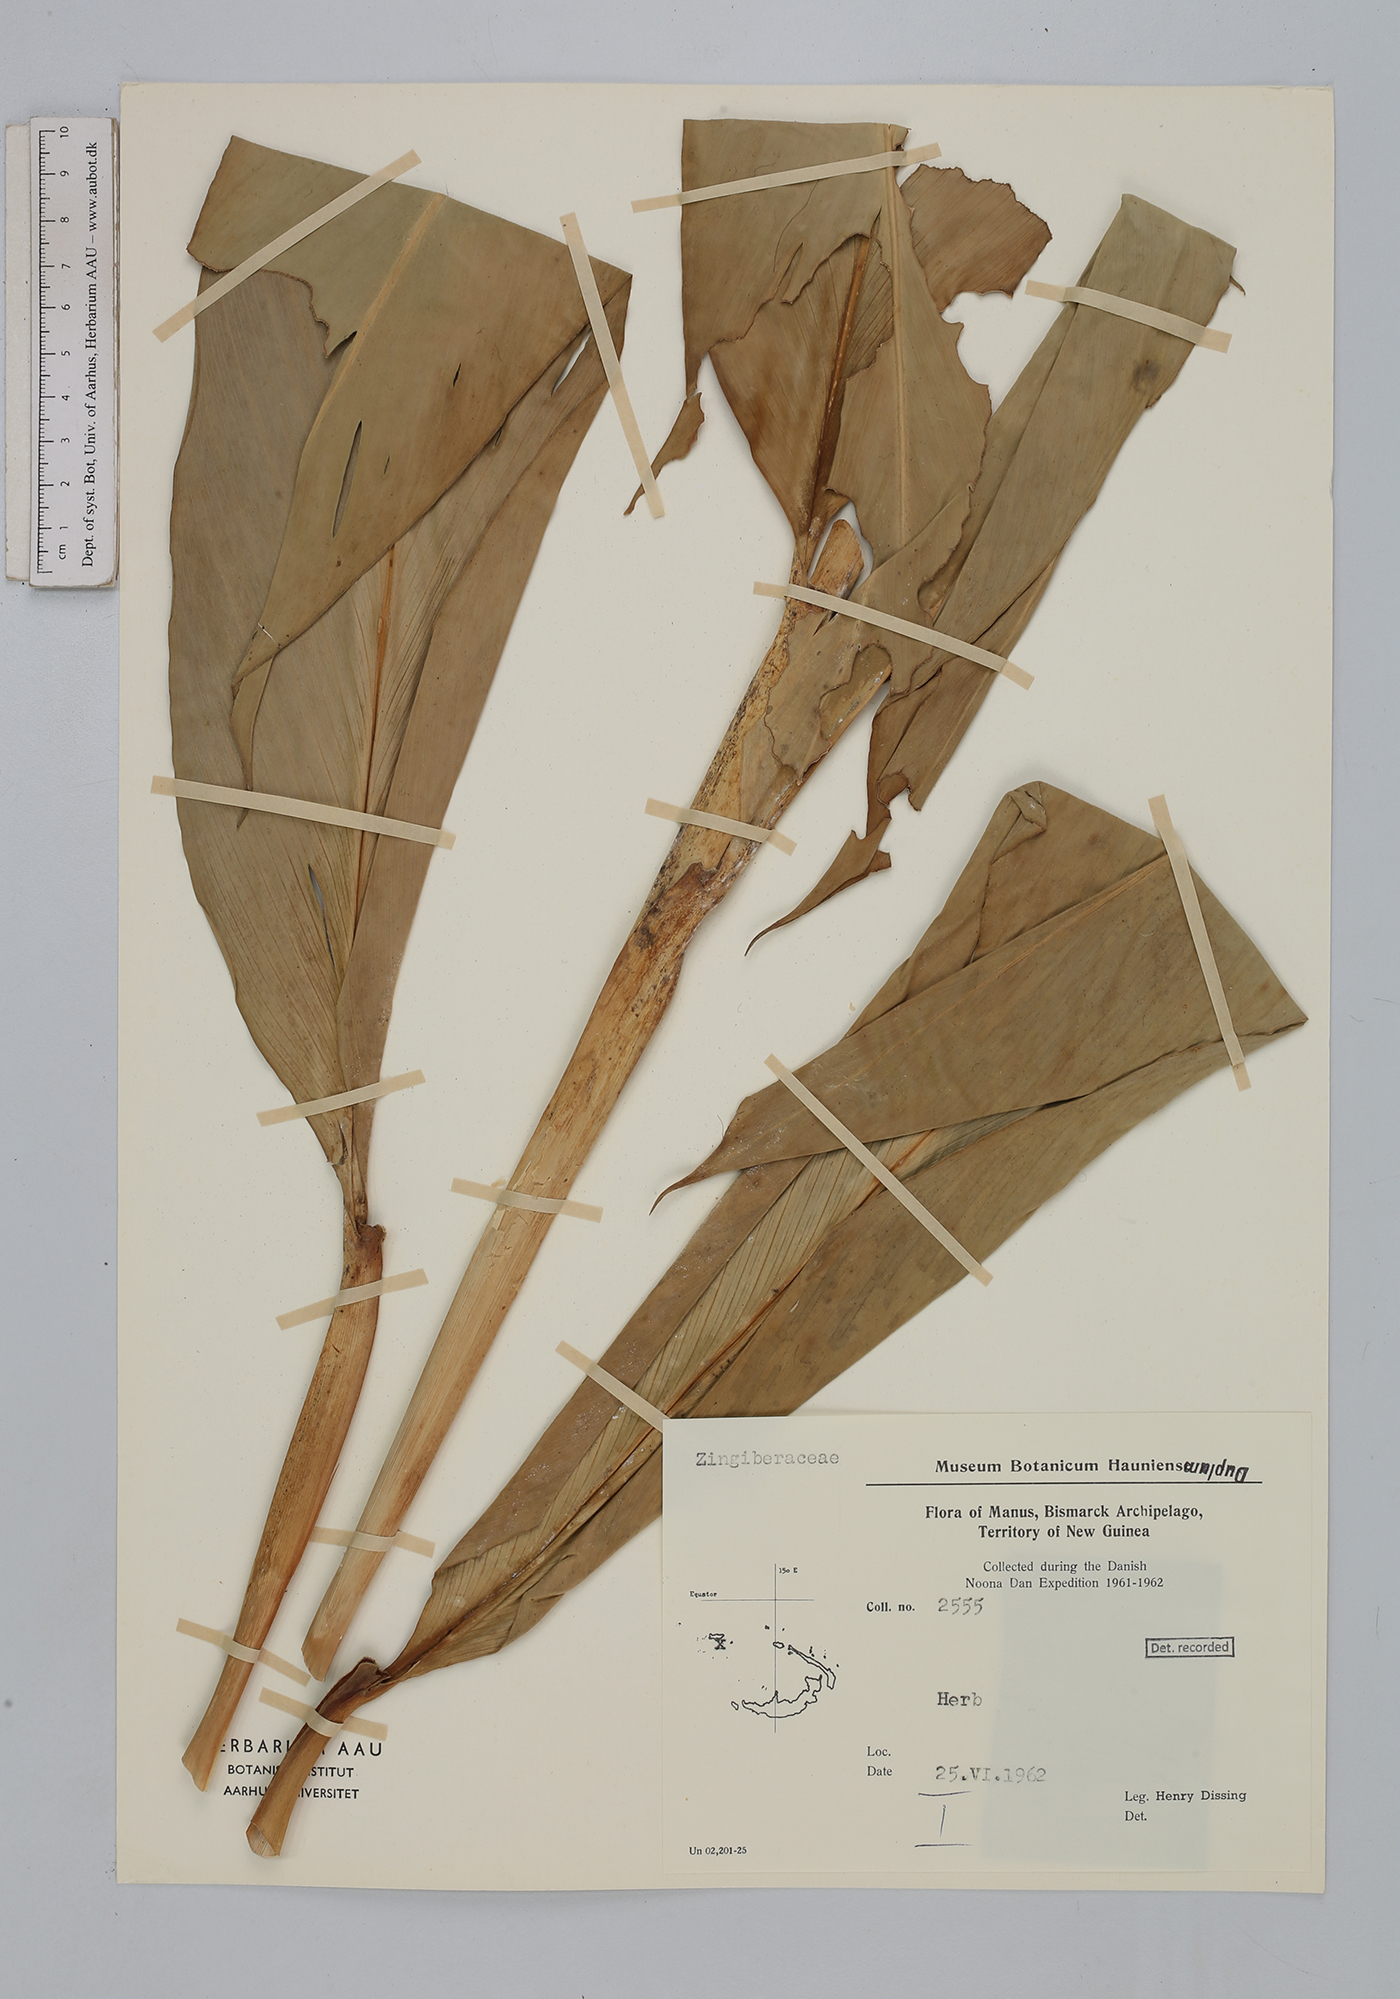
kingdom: Plantae
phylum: Tracheophyta
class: Liliopsida
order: Zingiberales
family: Zingiberaceae
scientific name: Zingiberaceae
